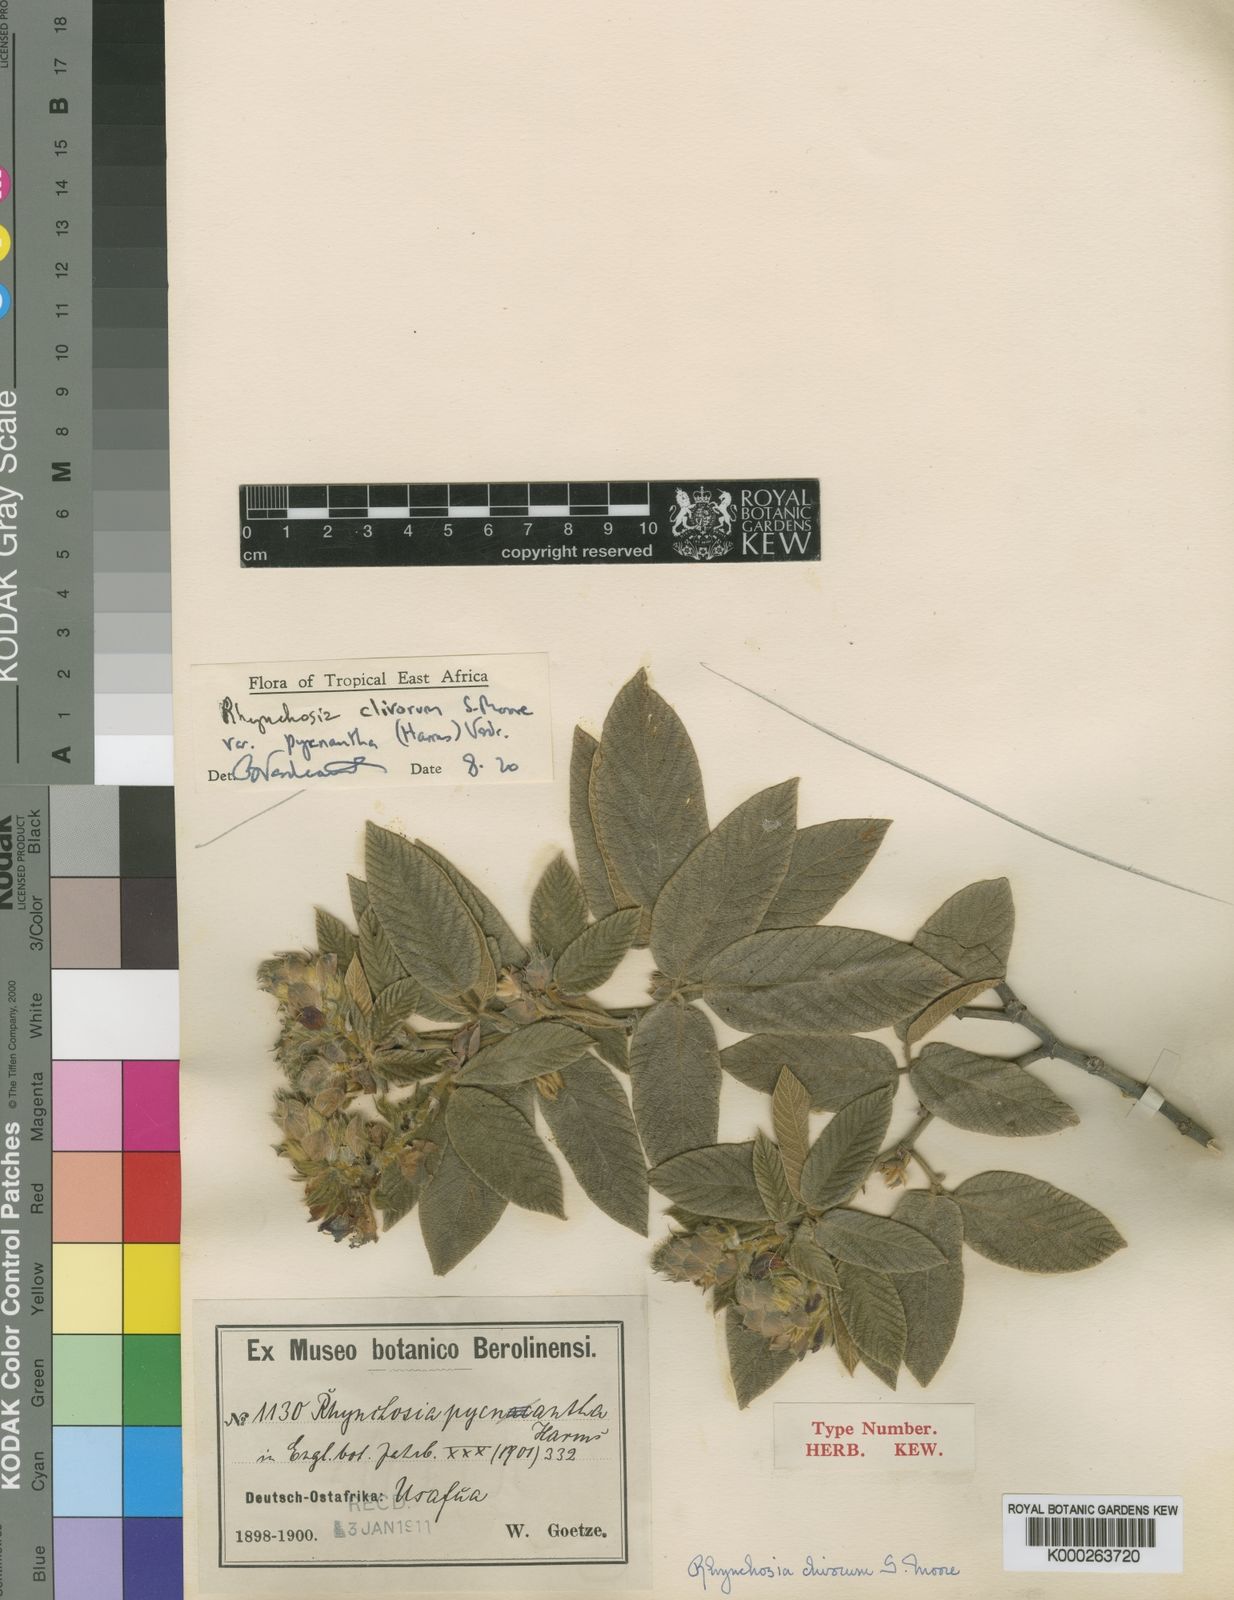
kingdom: Plantae
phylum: Tracheophyta
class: Magnoliopsida
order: Fabales
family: Fabaceae
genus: Rhynchosia
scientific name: Rhynchosia clivorum
